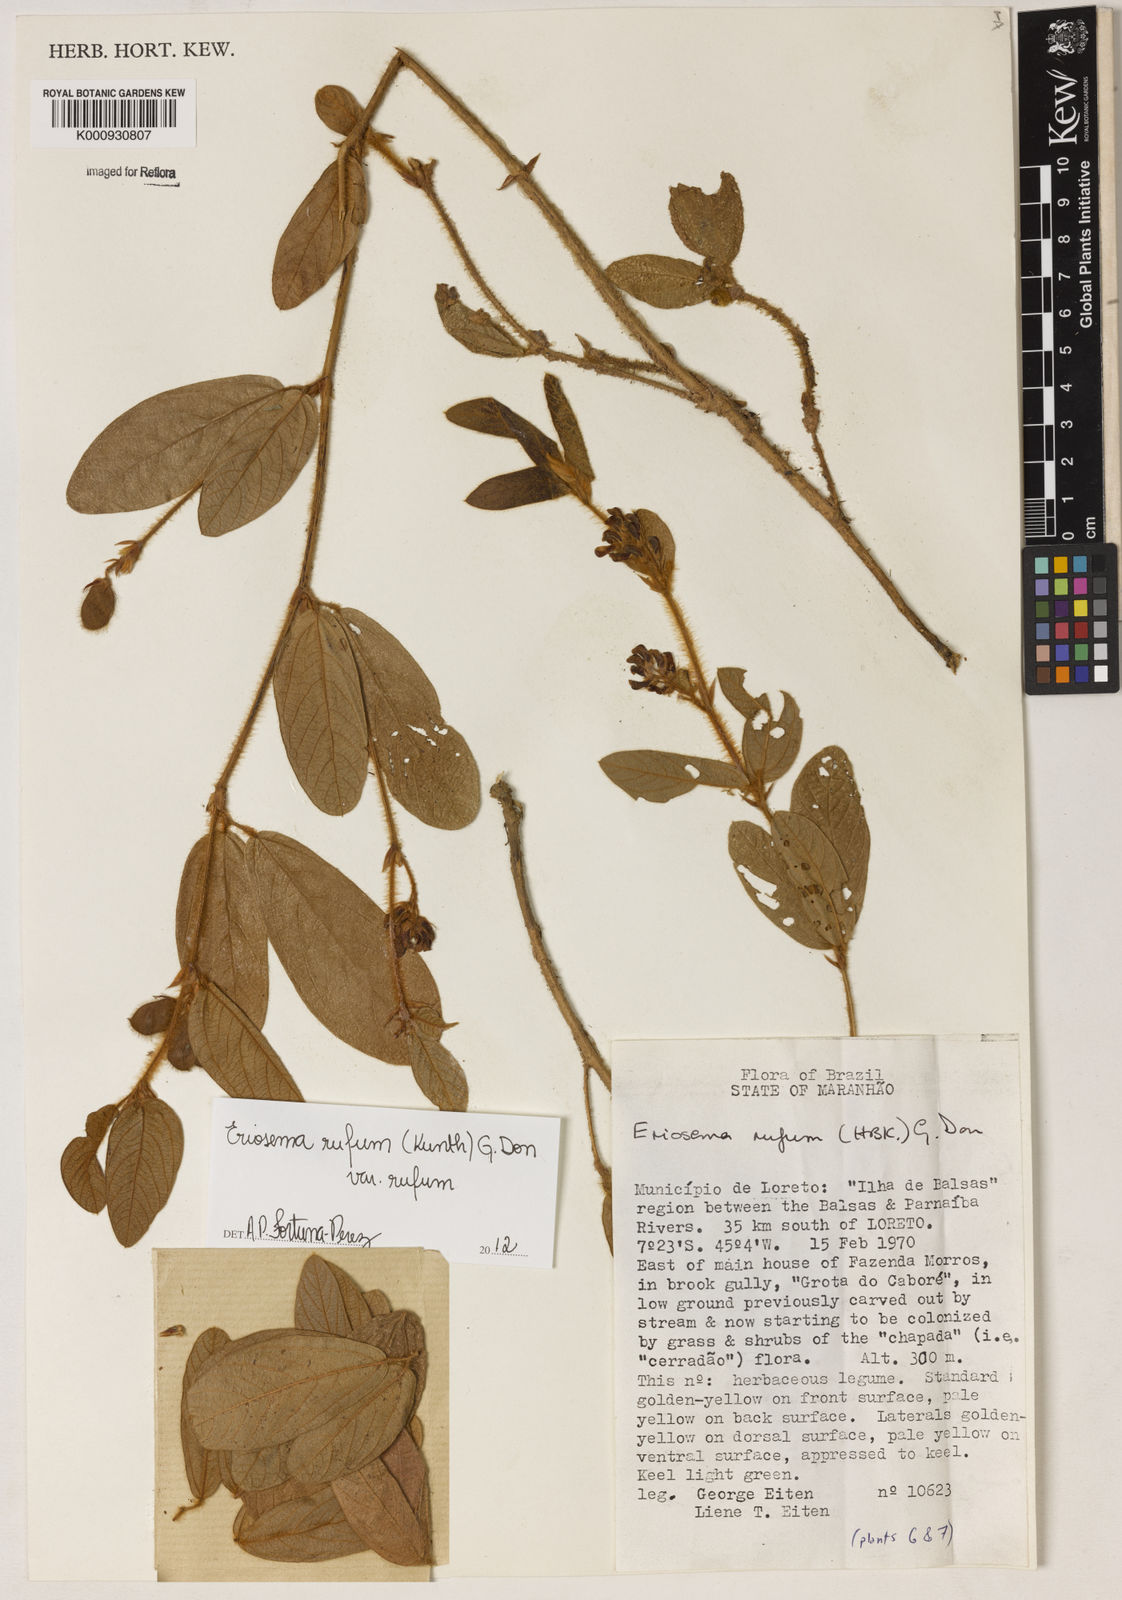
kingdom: Plantae
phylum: Tracheophyta
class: Magnoliopsida
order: Fabales
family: Fabaceae
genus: Eriosema
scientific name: Eriosema rufum
